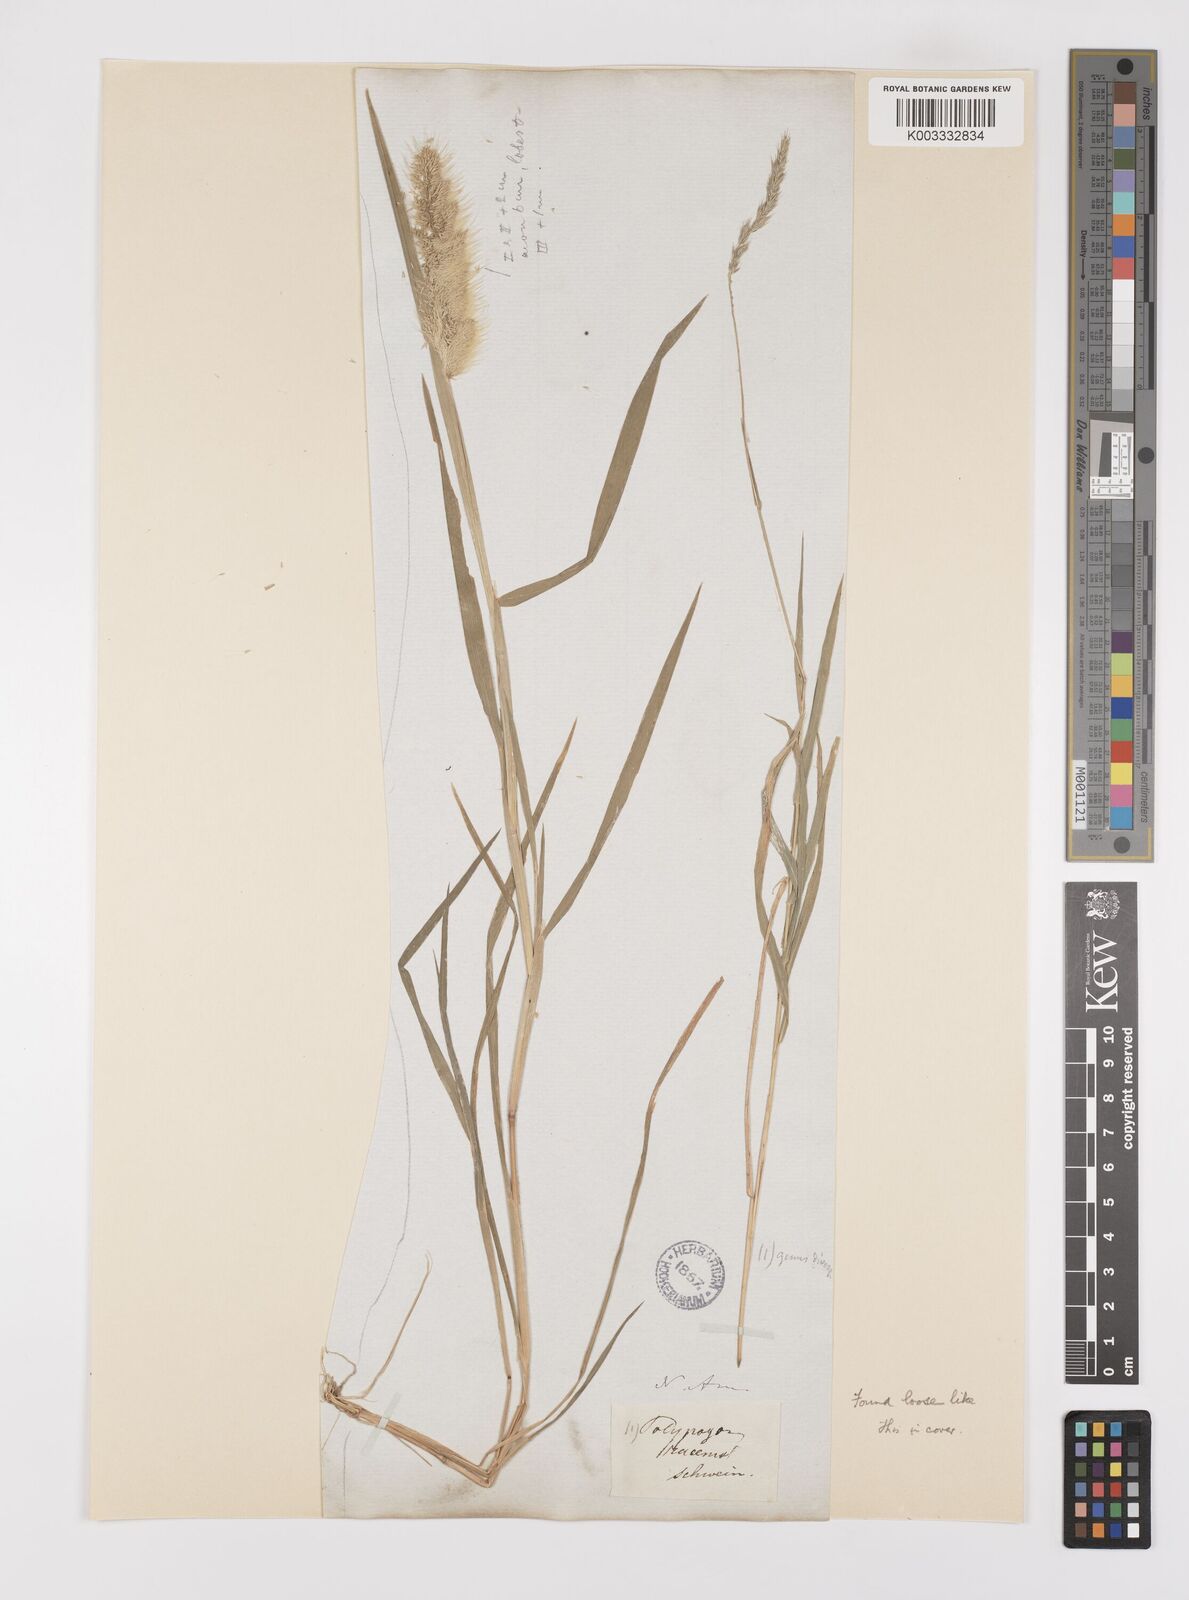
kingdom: Plantae
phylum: Tracheophyta
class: Liliopsida
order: Poales
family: Poaceae
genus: Polypogon
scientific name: Polypogon monspeliensis
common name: Annual rabbitsfoot grass
